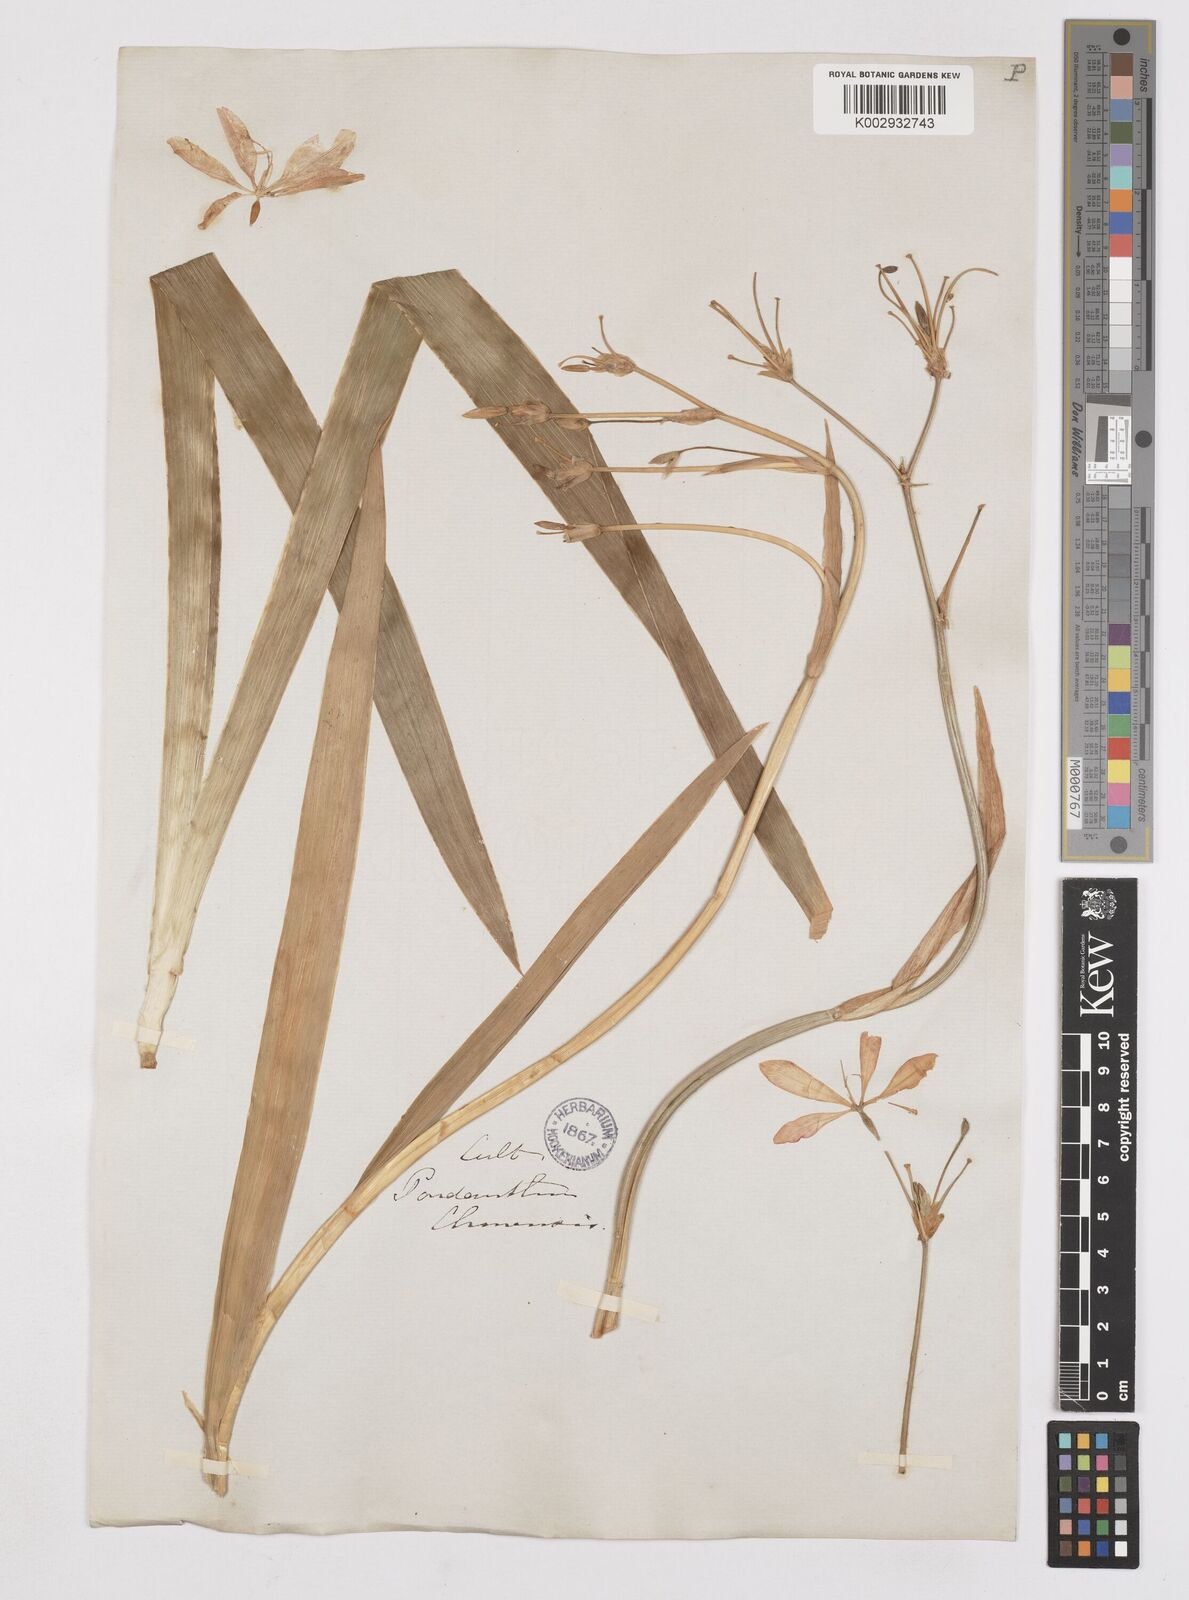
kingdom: Plantae
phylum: Tracheophyta
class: Liliopsida
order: Asparagales
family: Iridaceae
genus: Iris
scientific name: Iris
